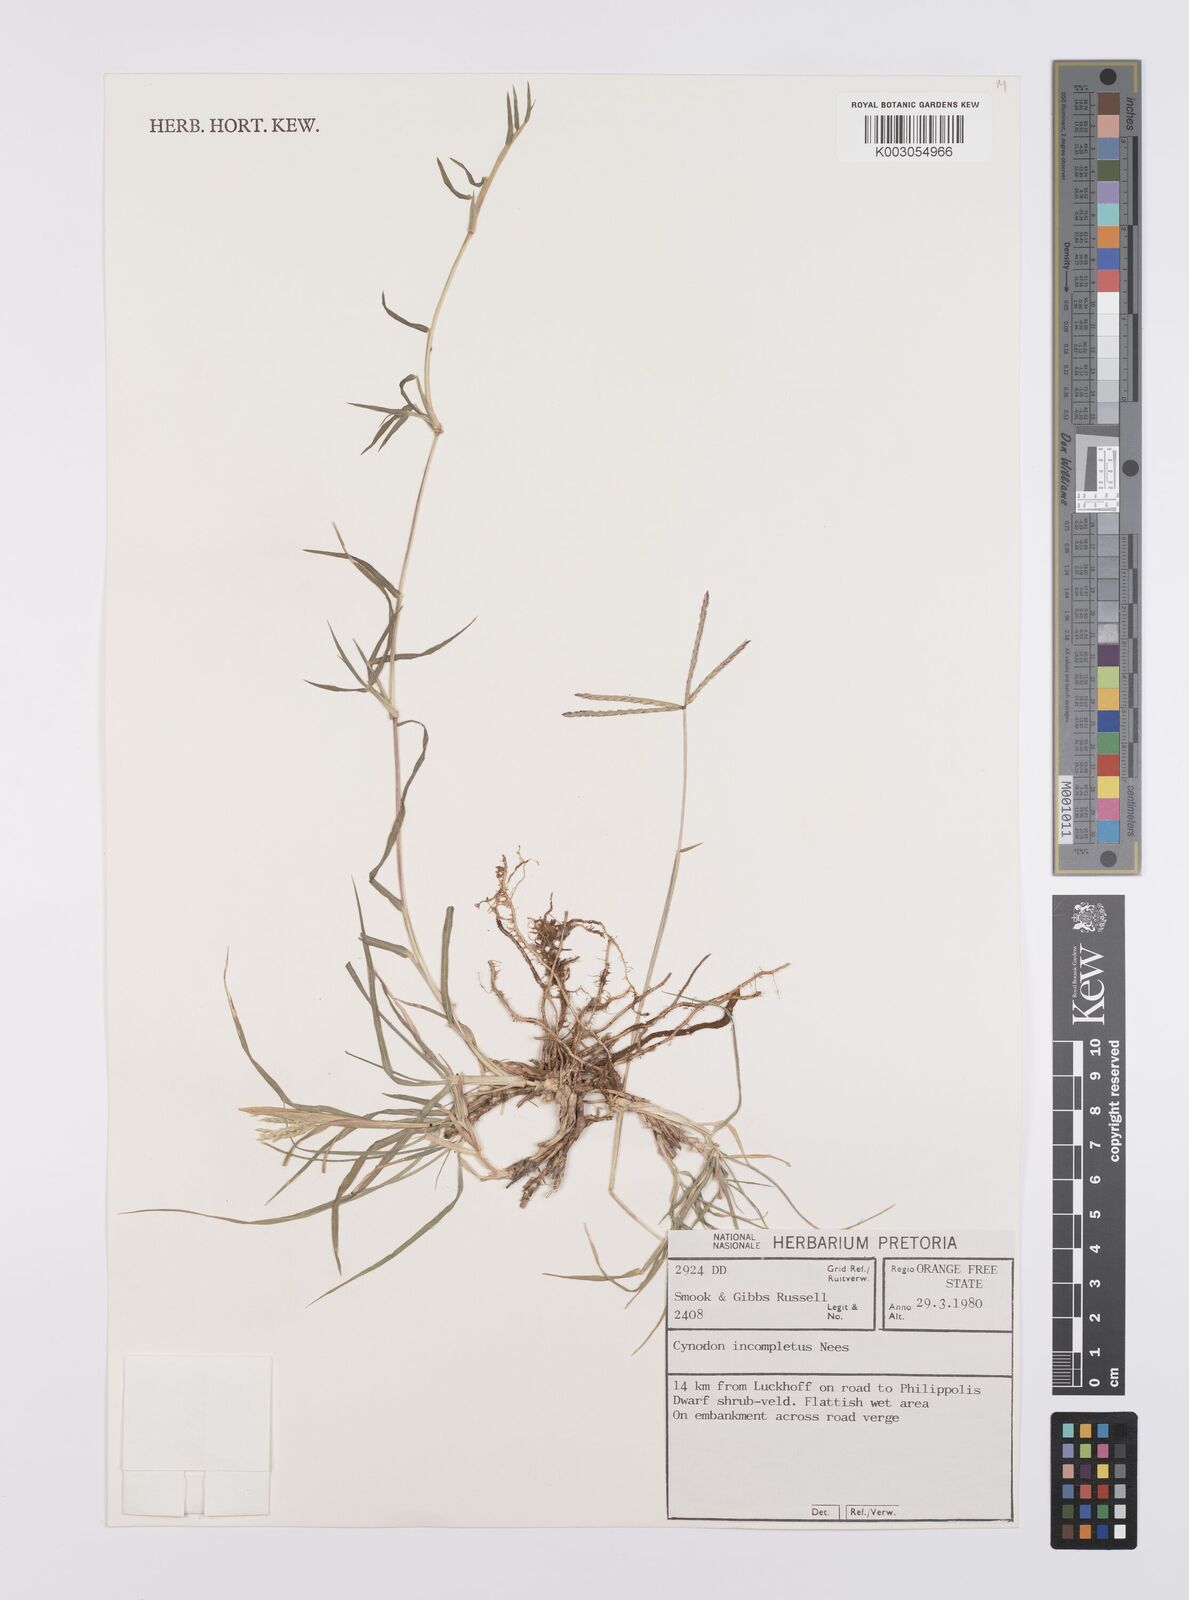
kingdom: Plantae
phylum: Tracheophyta
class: Liliopsida
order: Poales
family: Poaceae
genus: Cynodon
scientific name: Cynodon incompletus
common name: African bermuda-grass
